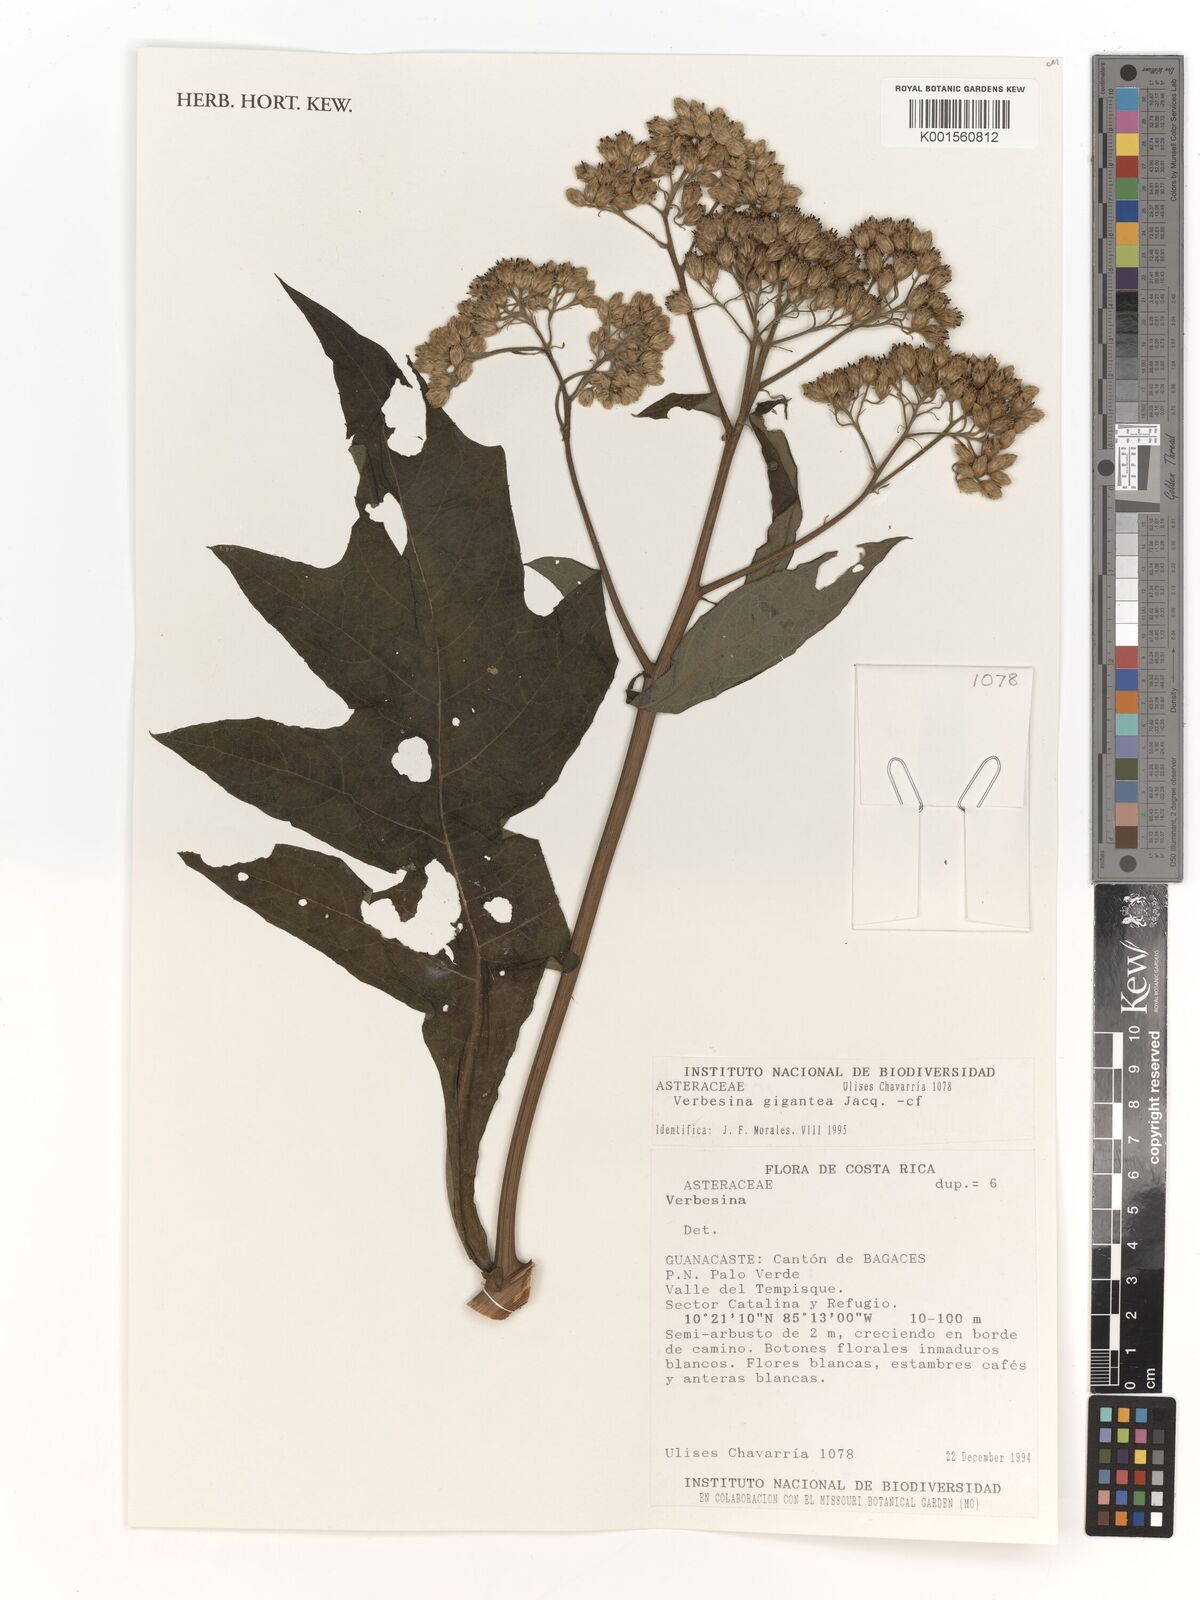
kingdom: Plantae
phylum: Tracheophyta
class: Magnoliopsida
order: Asterales
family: Asteraceae
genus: Verbesina
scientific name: Verbesina gigantea
